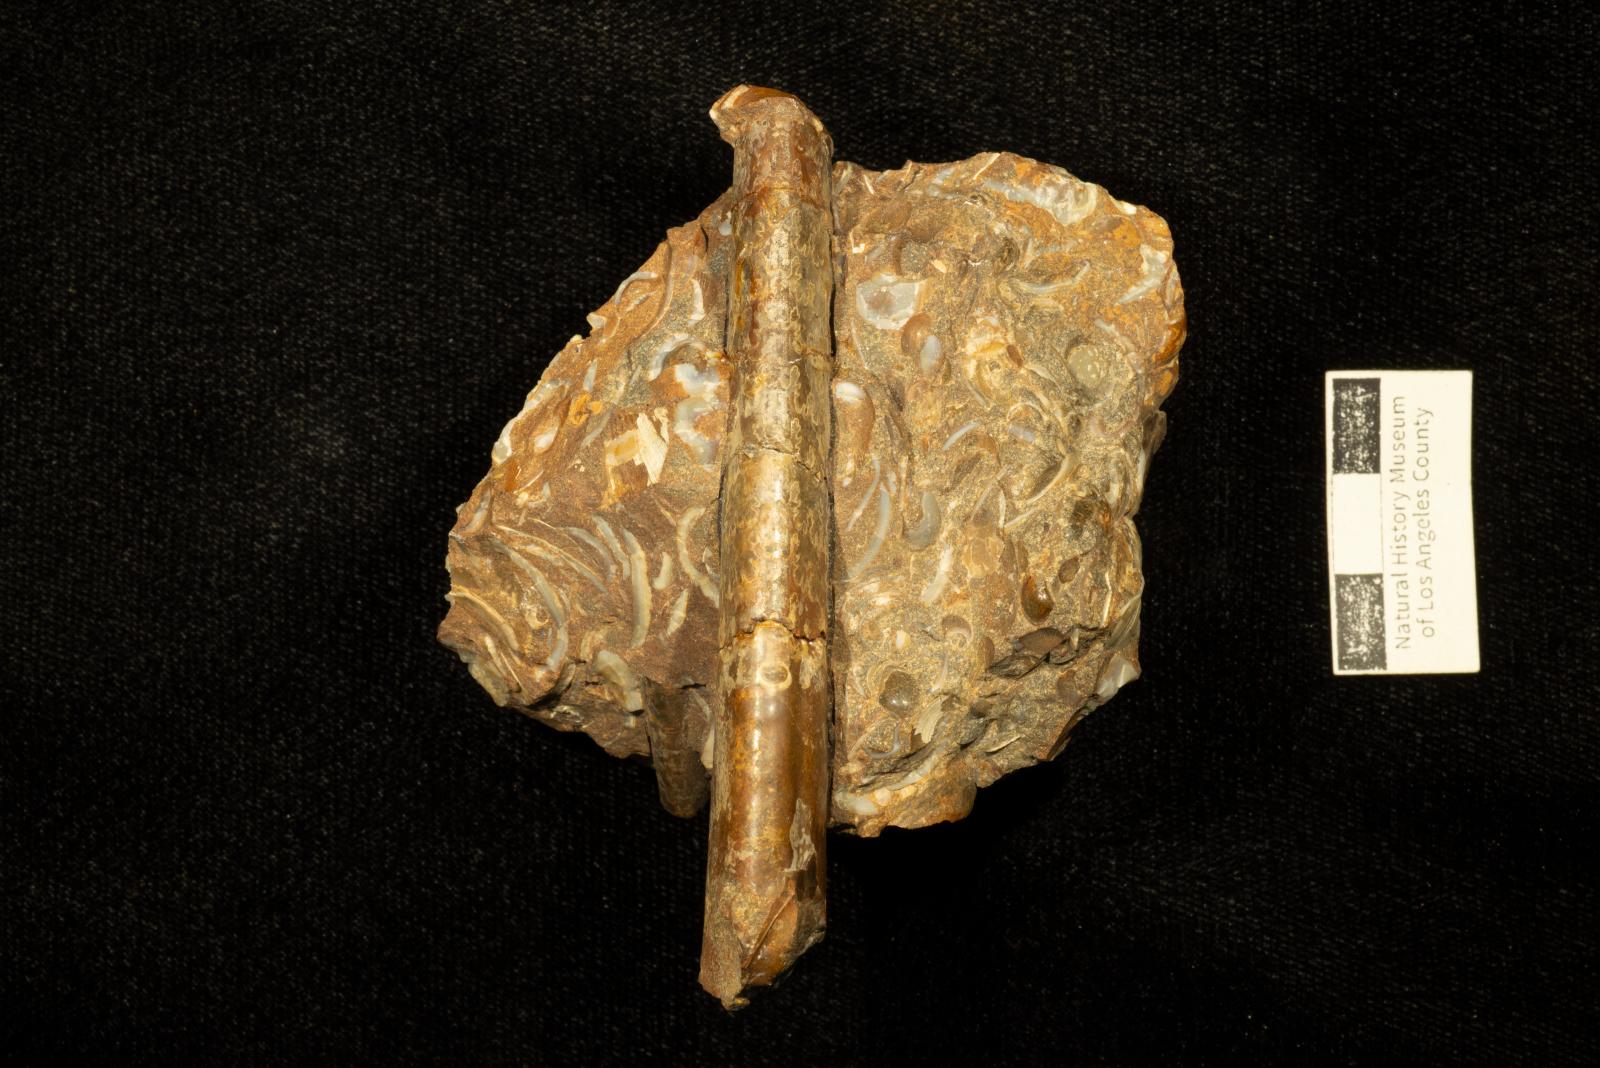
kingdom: Animalia
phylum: Mollusca
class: Cephalopoda
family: Baculitidae
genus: Baculites
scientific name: Baculites
